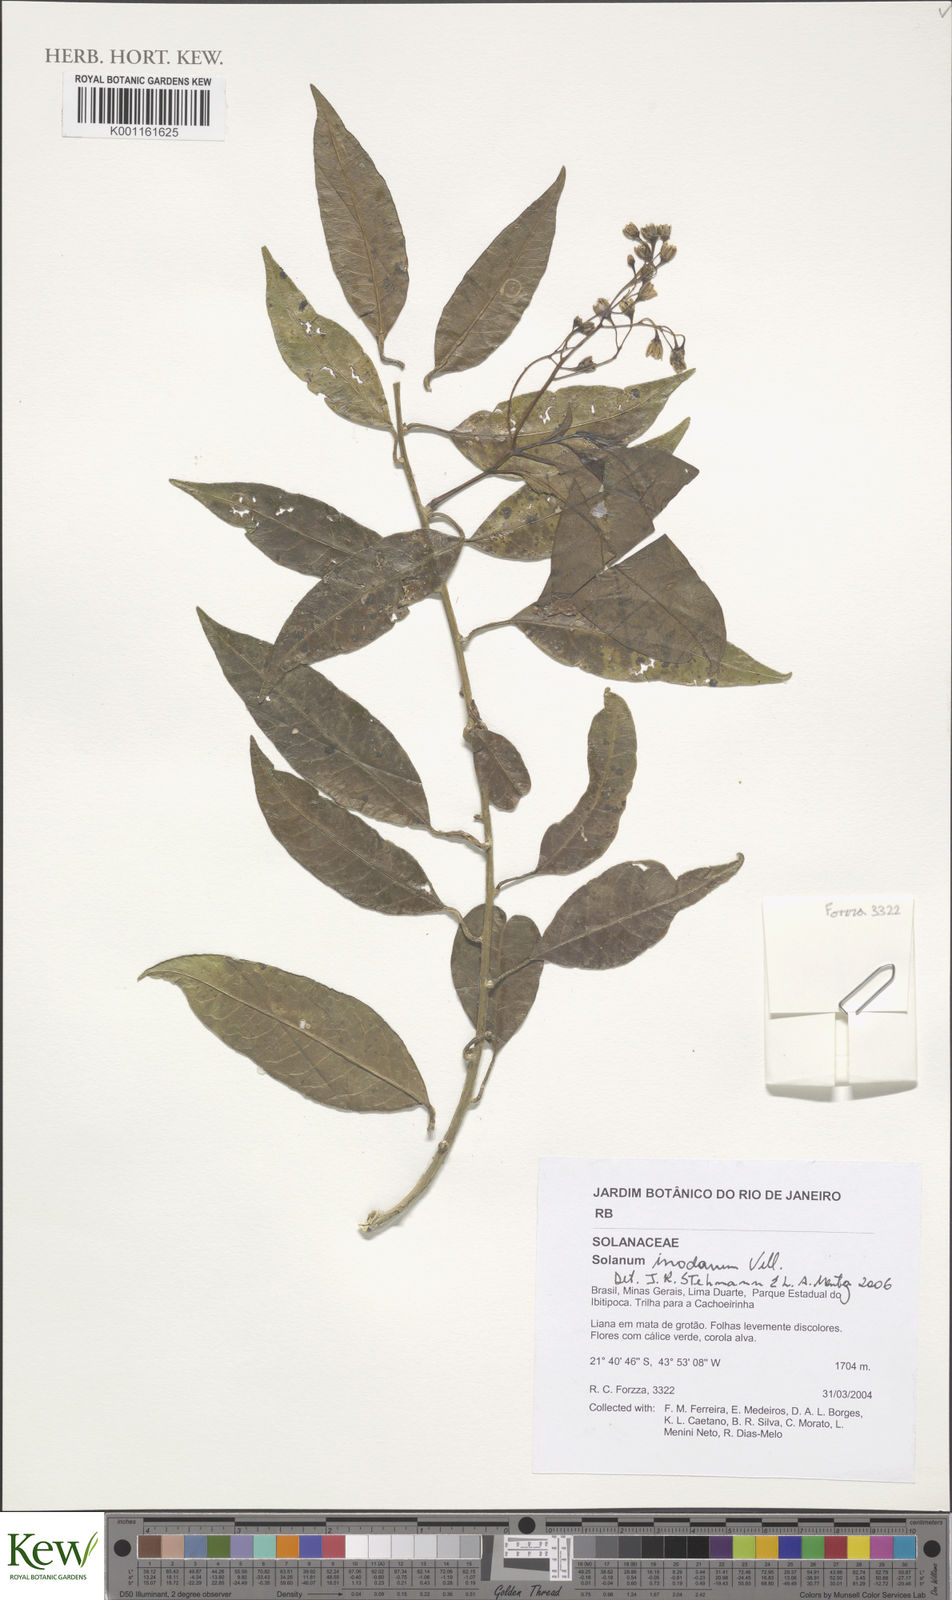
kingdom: Plantae
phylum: Tracheophyta
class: Magnoliopsida
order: Solanales
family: Solanaceae
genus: Solanum
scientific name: Solanum inodorum
